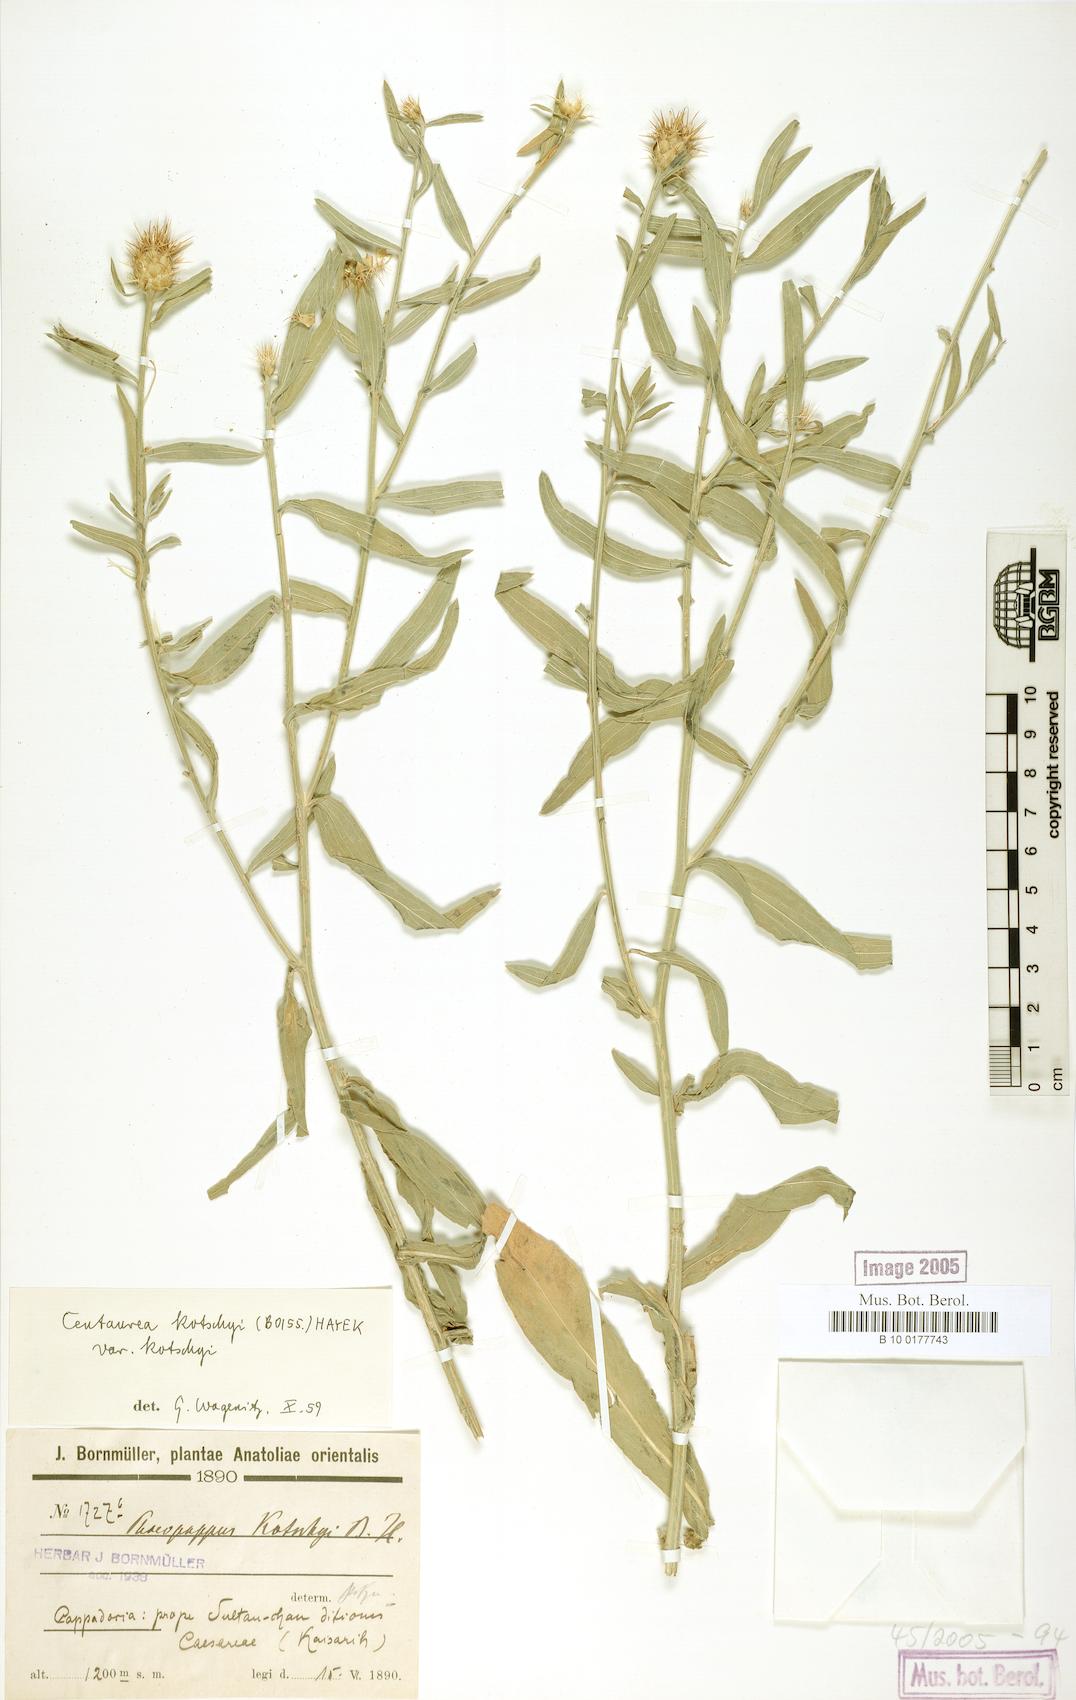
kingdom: Plantae
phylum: Tracheophyta
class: Magnoliopsida
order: Asterales
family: Asteraceae
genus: Centaurea
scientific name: Centaurea kotschyi
